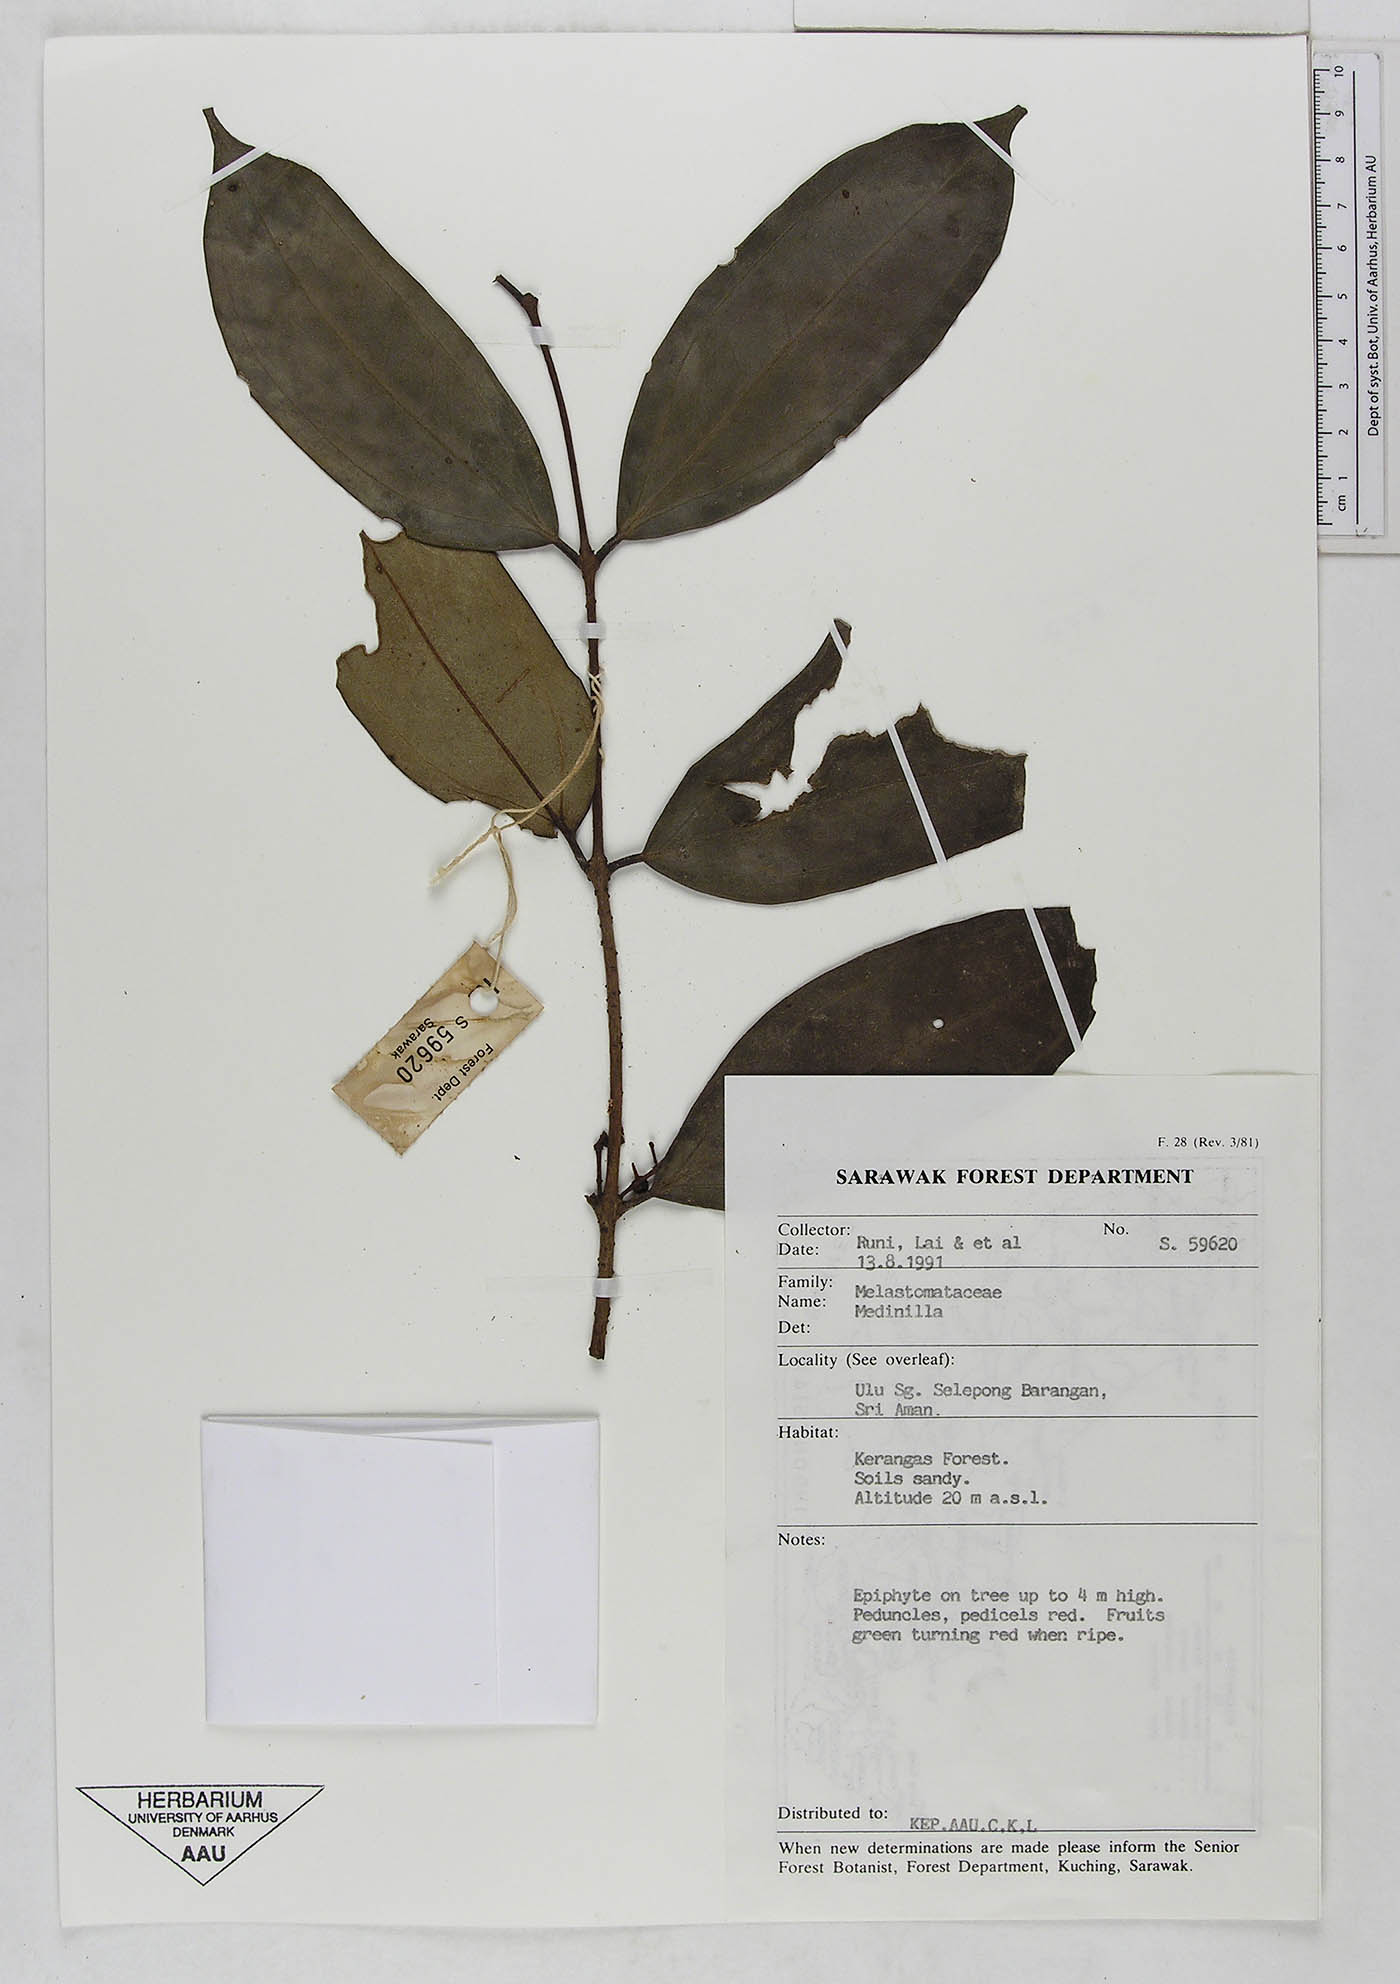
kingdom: Plantae
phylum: Tracheophyta
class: Magnoliopsida
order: Myrtales
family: Melastomataceae
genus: Medinilla
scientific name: Medinilla
